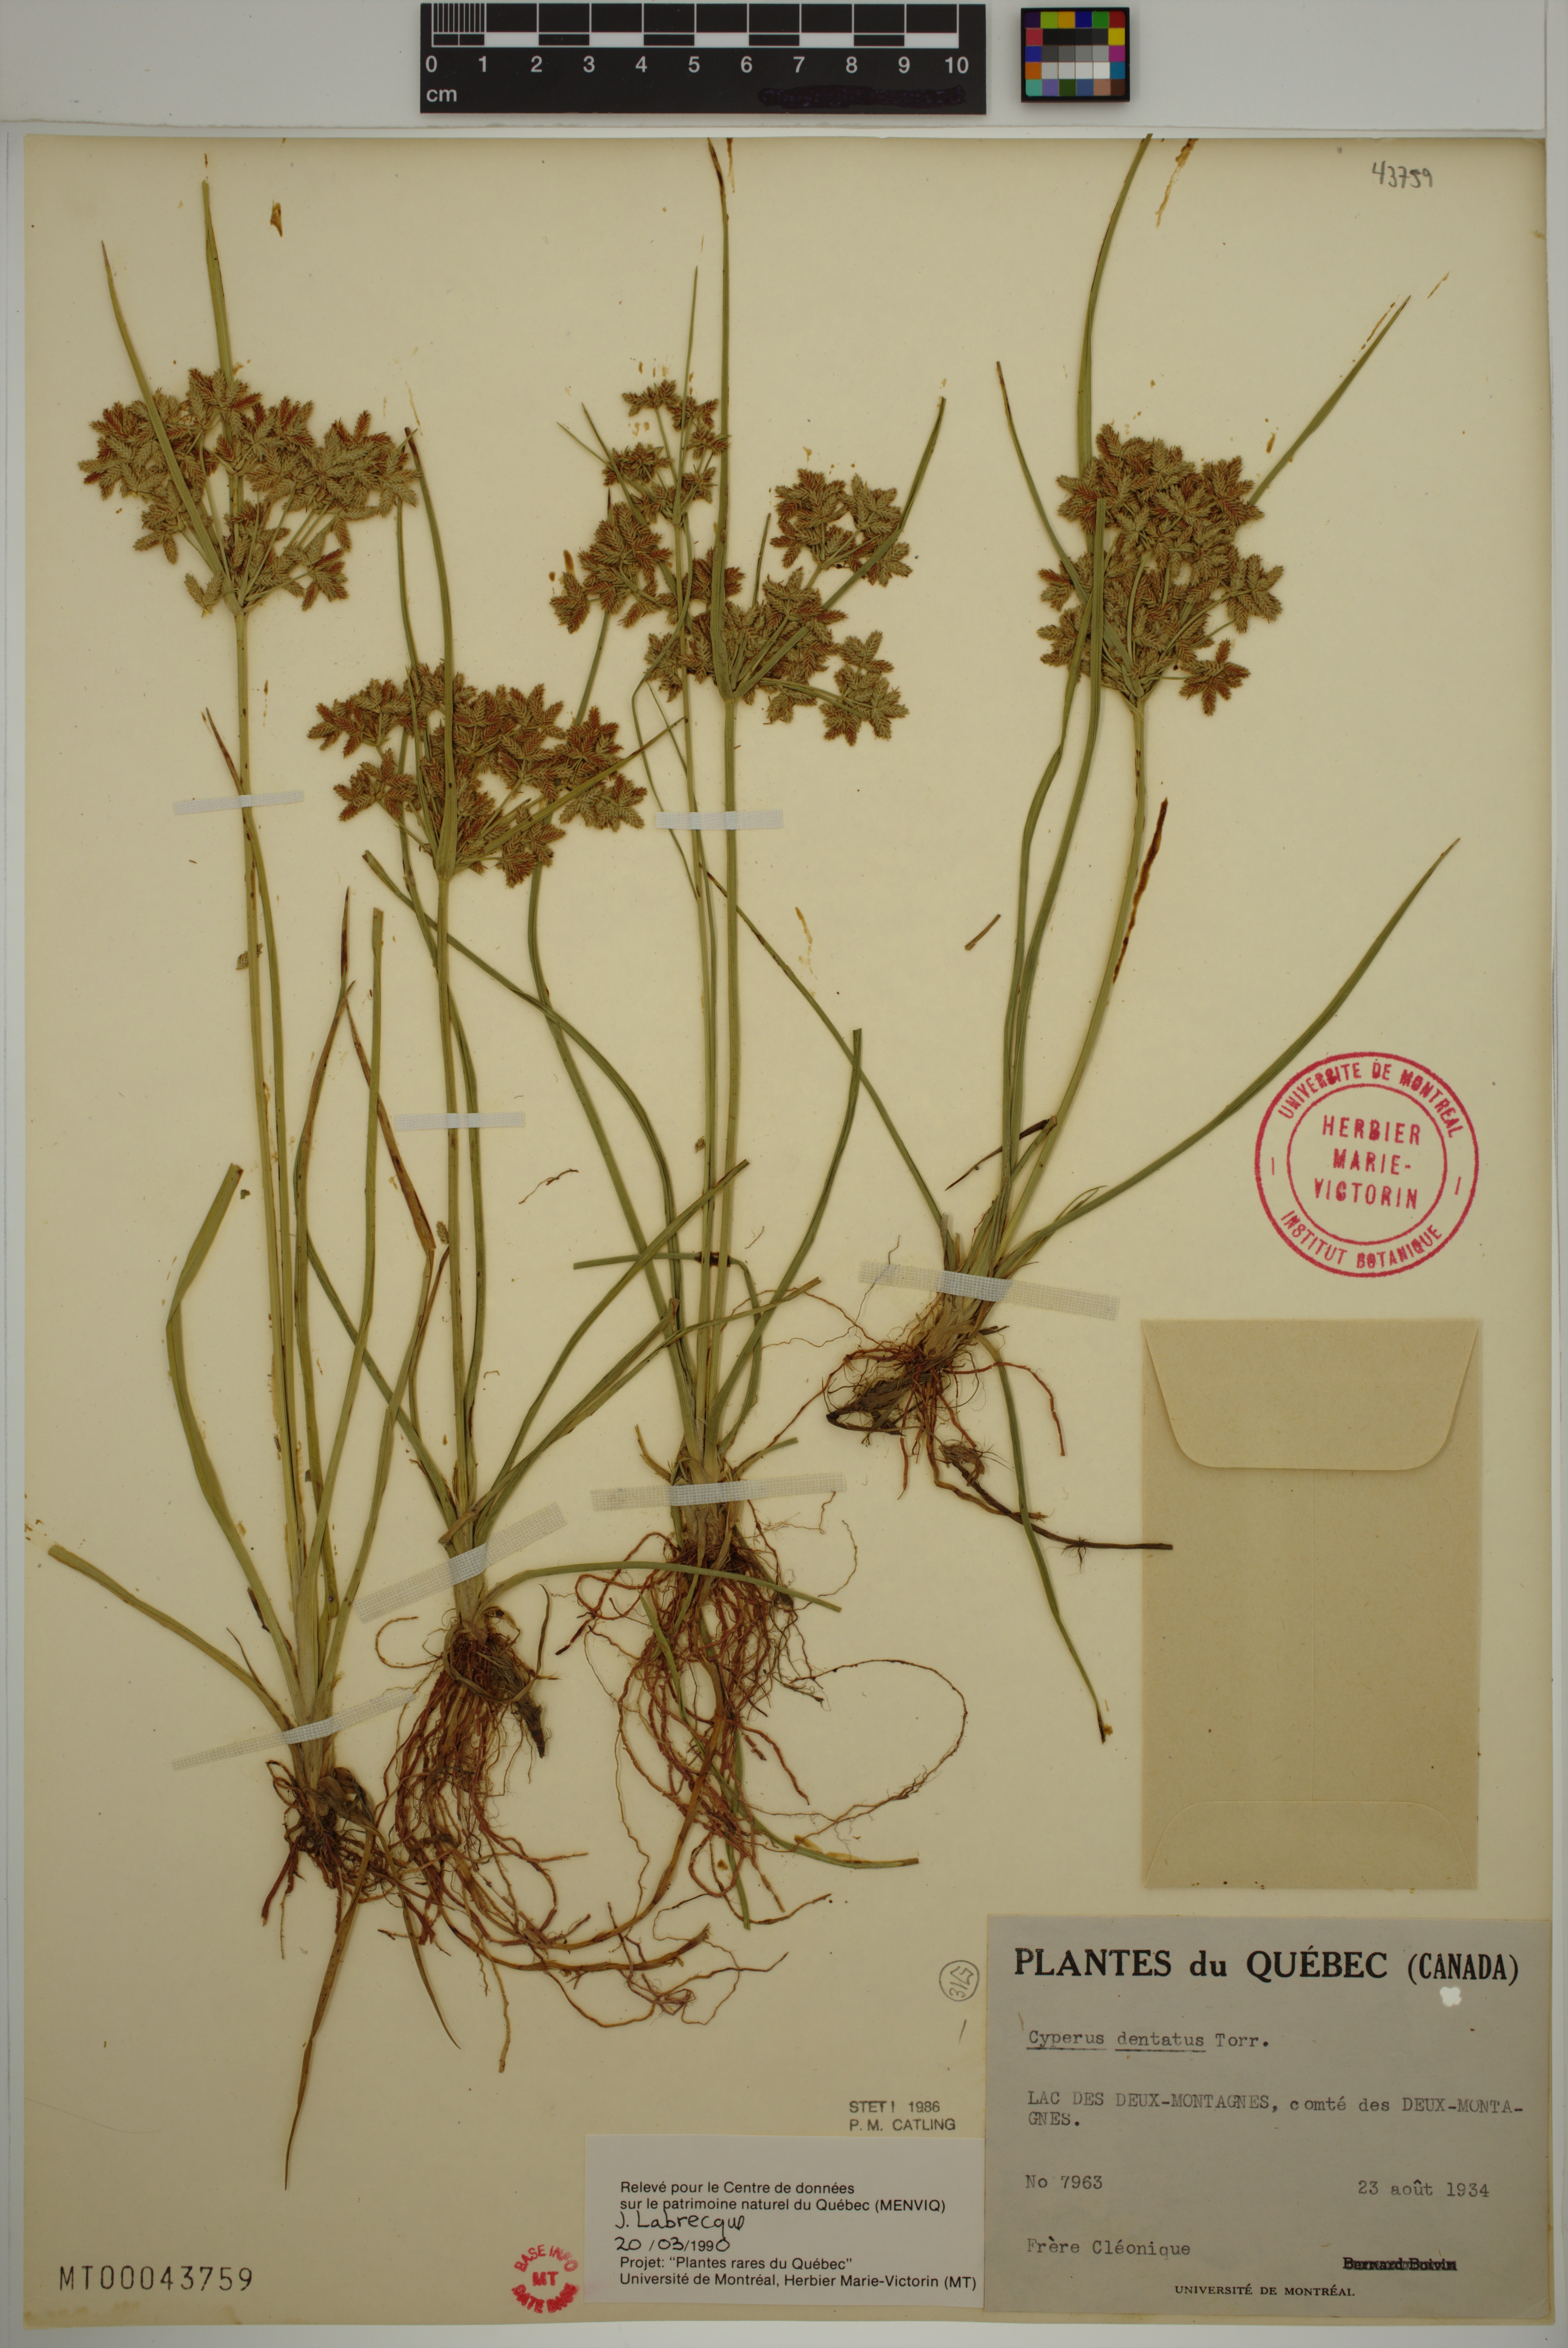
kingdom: Plantae
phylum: Tracheophyta
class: Liliopsida
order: Poales
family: Cyperaceae
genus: Cyperus
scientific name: Cyperus dentatus
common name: Dentate umbrella sedge
